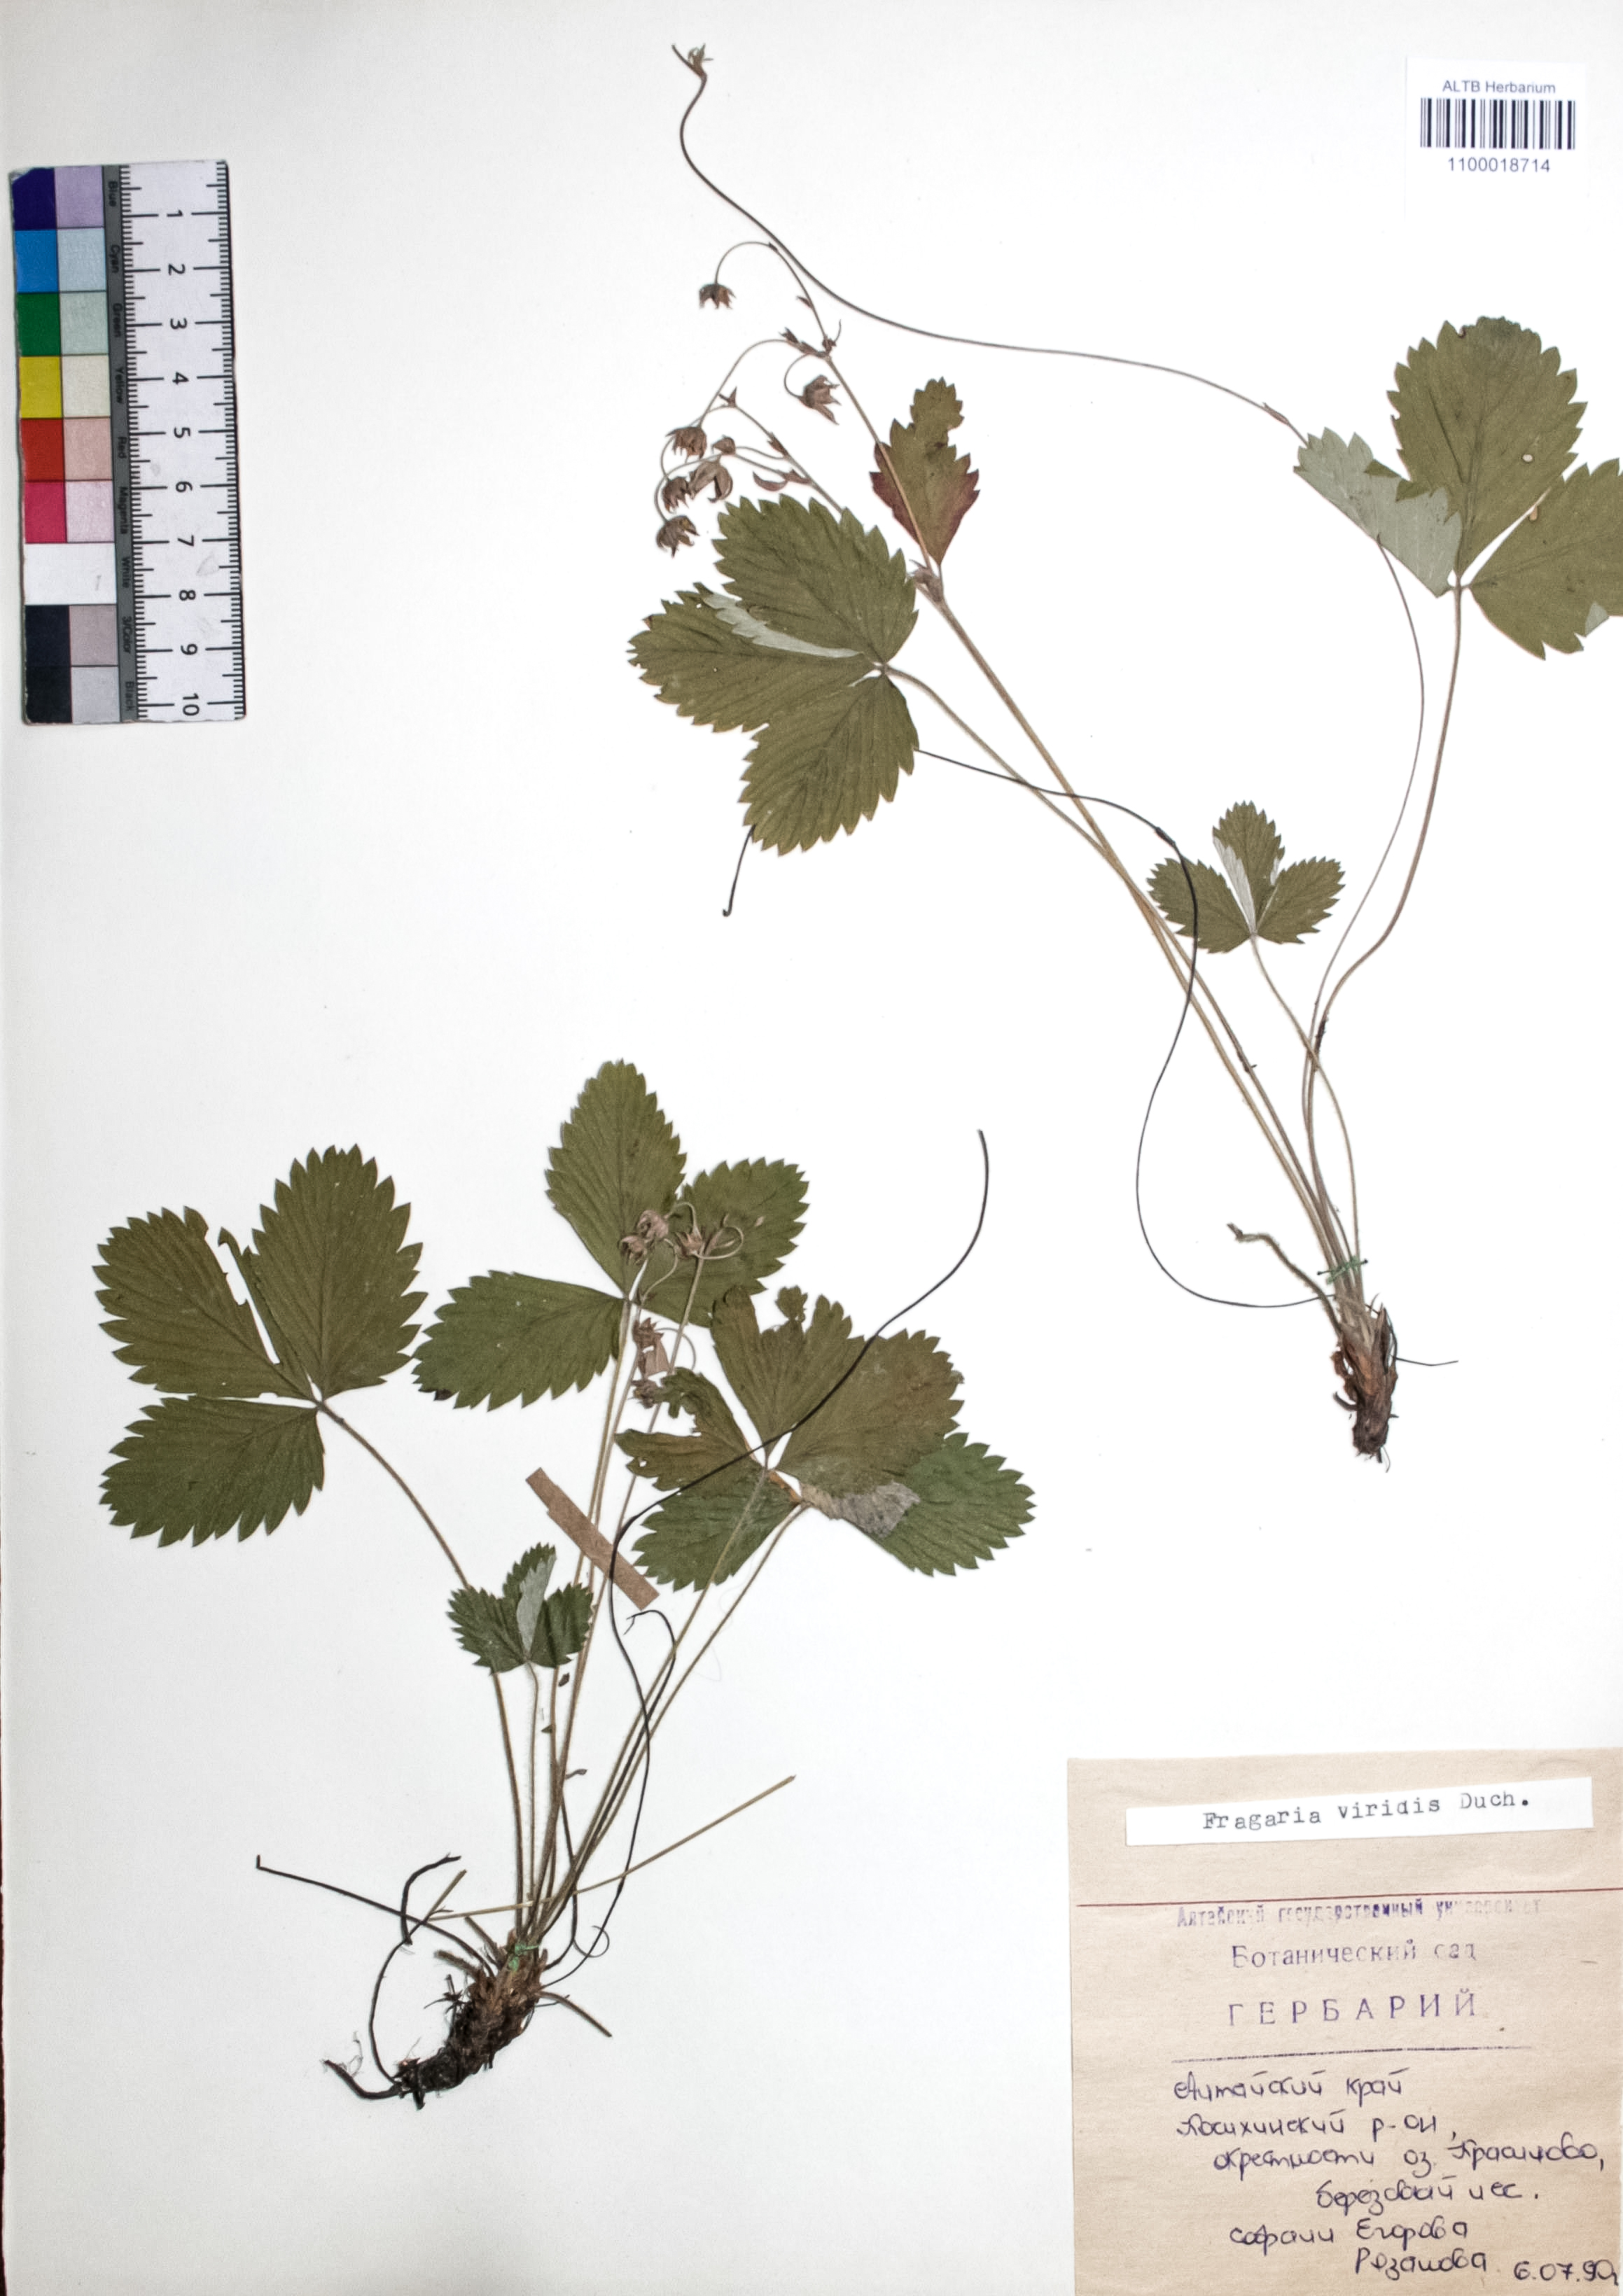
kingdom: Plantae
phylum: Tracheophyta
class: Magnoliopsida
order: Rosales
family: Rosaceae
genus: Fragaria
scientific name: Fragaria viridis
